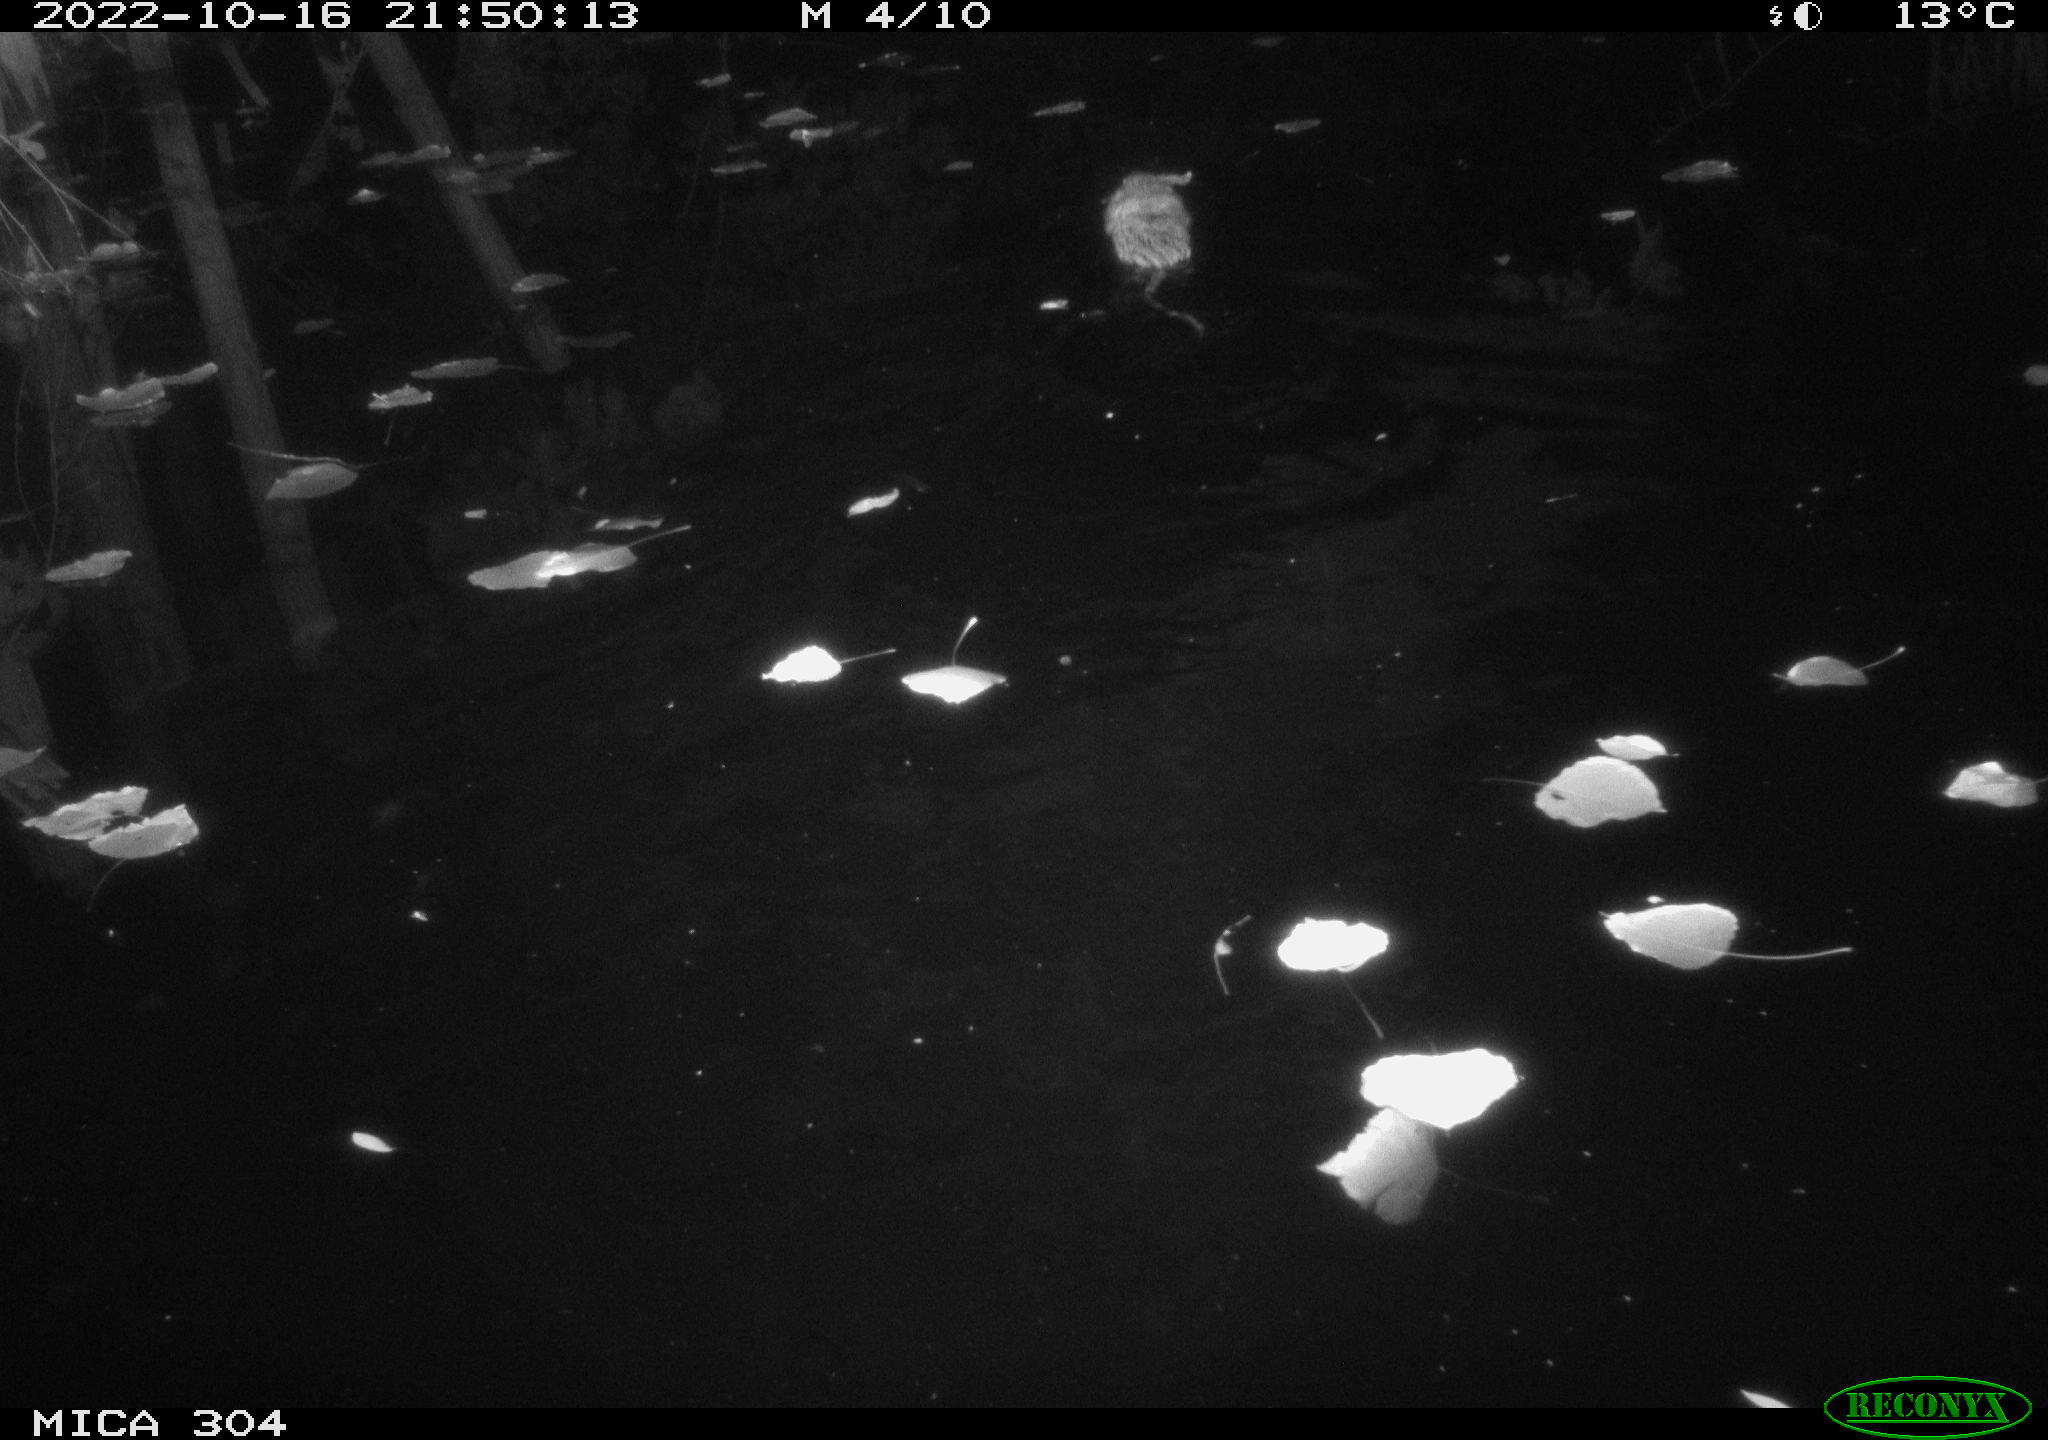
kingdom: Animalia
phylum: Chordata
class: Mammalia
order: Rodentia
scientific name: Rodentia
